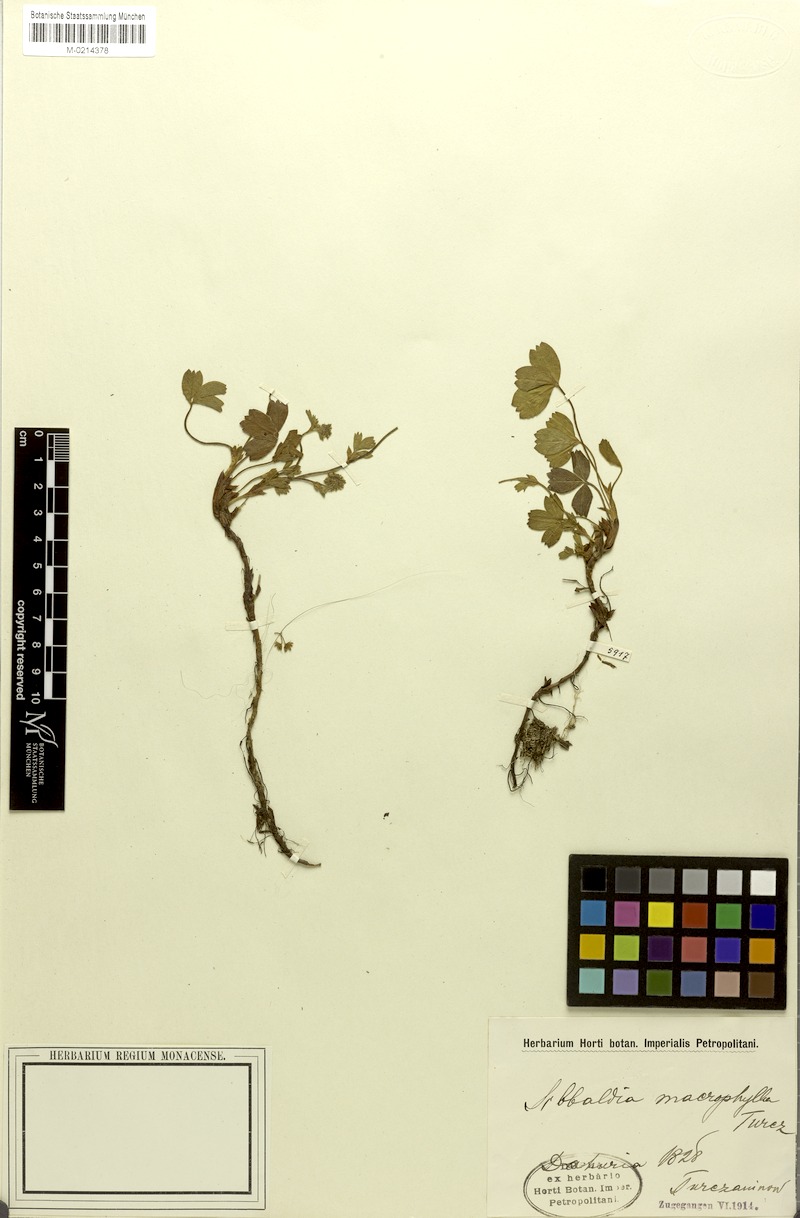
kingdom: Plantae
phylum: Tracheophyta
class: Magnoliopsida
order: Rosales
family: Rosaceae
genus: Sibbaldia
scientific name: Sibbaldia procumbens
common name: Creeping sibbaldia
